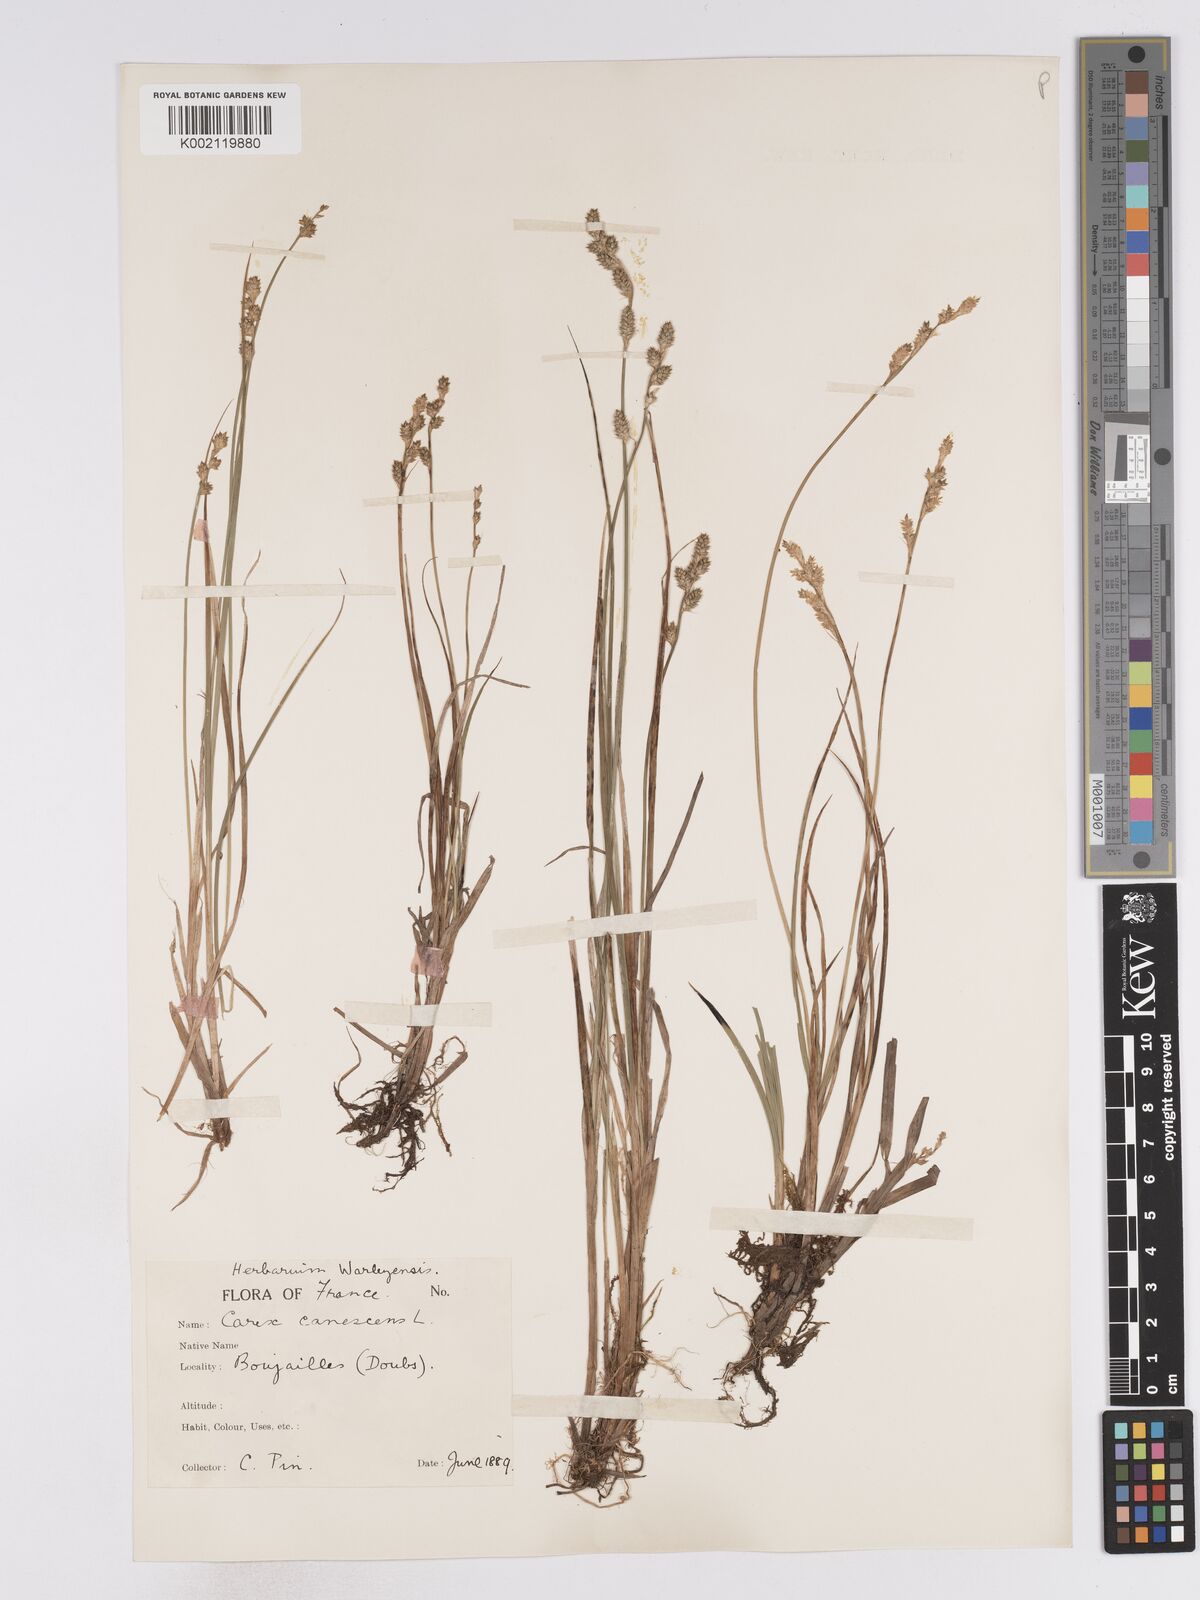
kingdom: Plantae
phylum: Tracheophyta
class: Liliopsida
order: Poales
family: Cyperaceae
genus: Carex
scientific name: Carex curta
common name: White sedge
